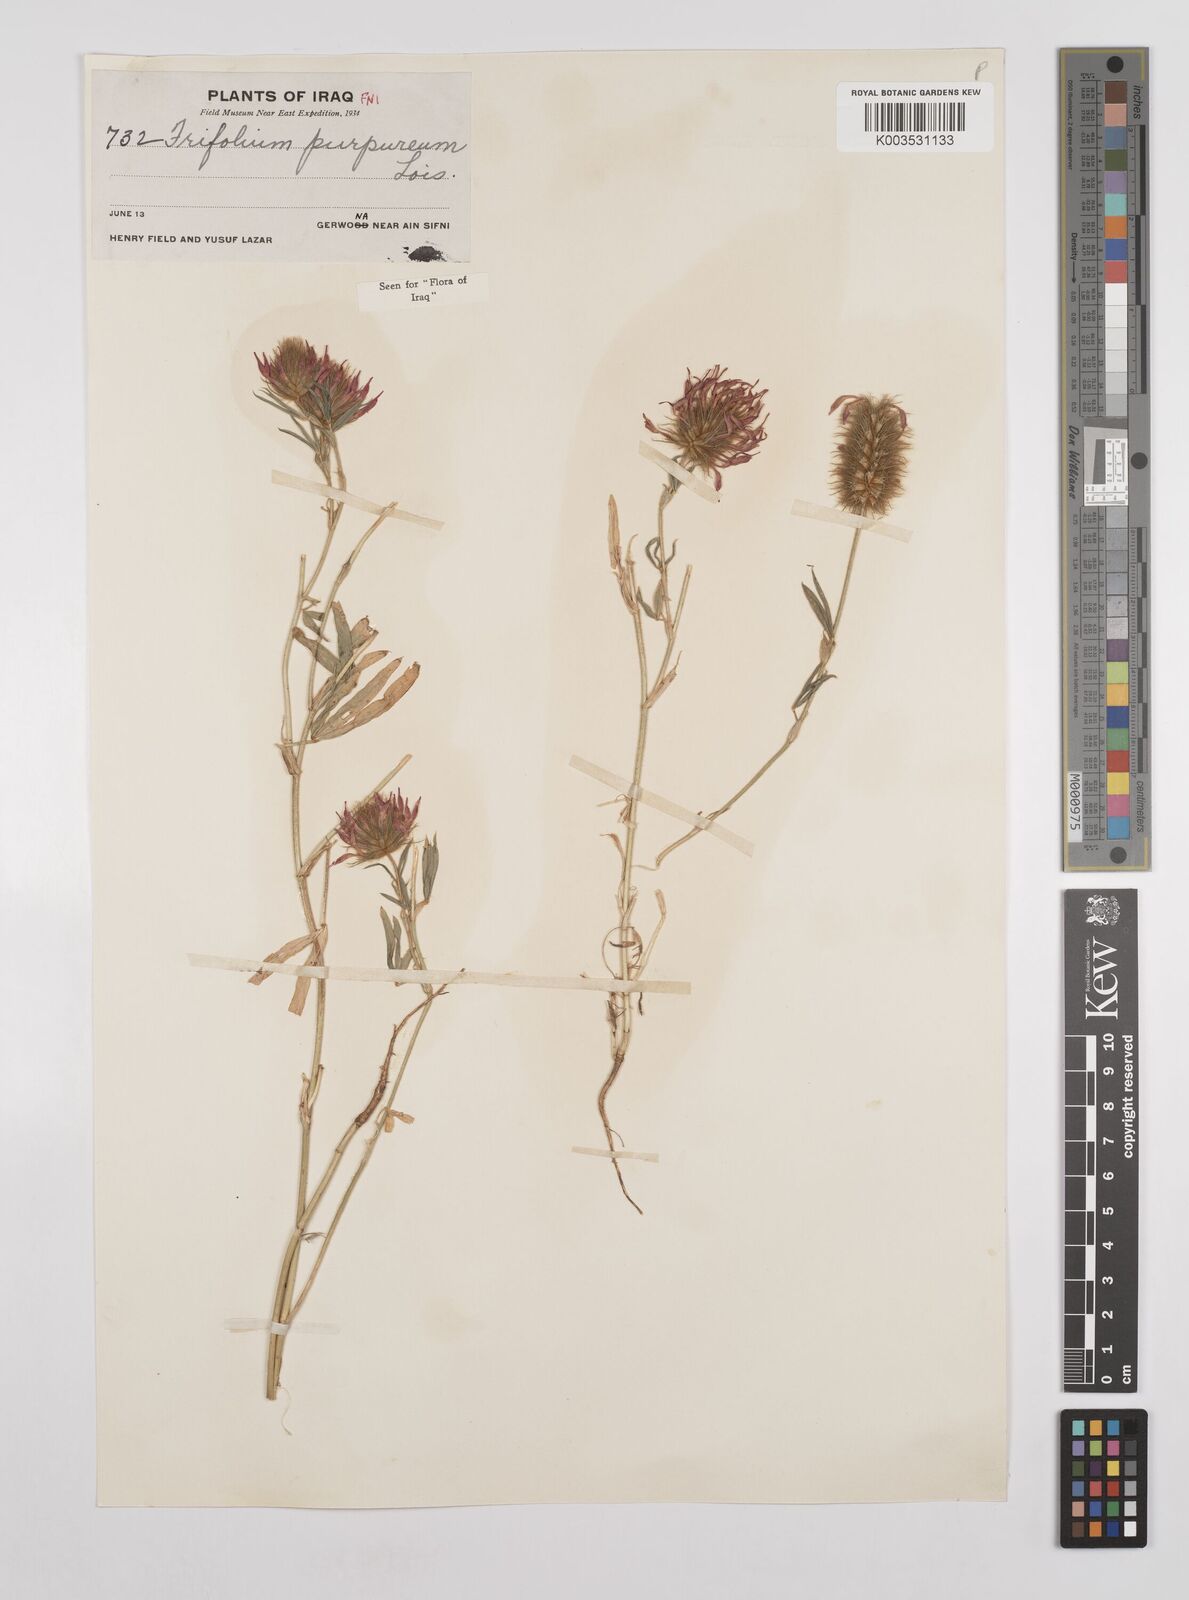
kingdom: Plantae
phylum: Tracheophyta
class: Magnoliopsida
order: Fabales
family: Fabaceae
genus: Trifolium
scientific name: Trifolium purpureum
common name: Purple clover
